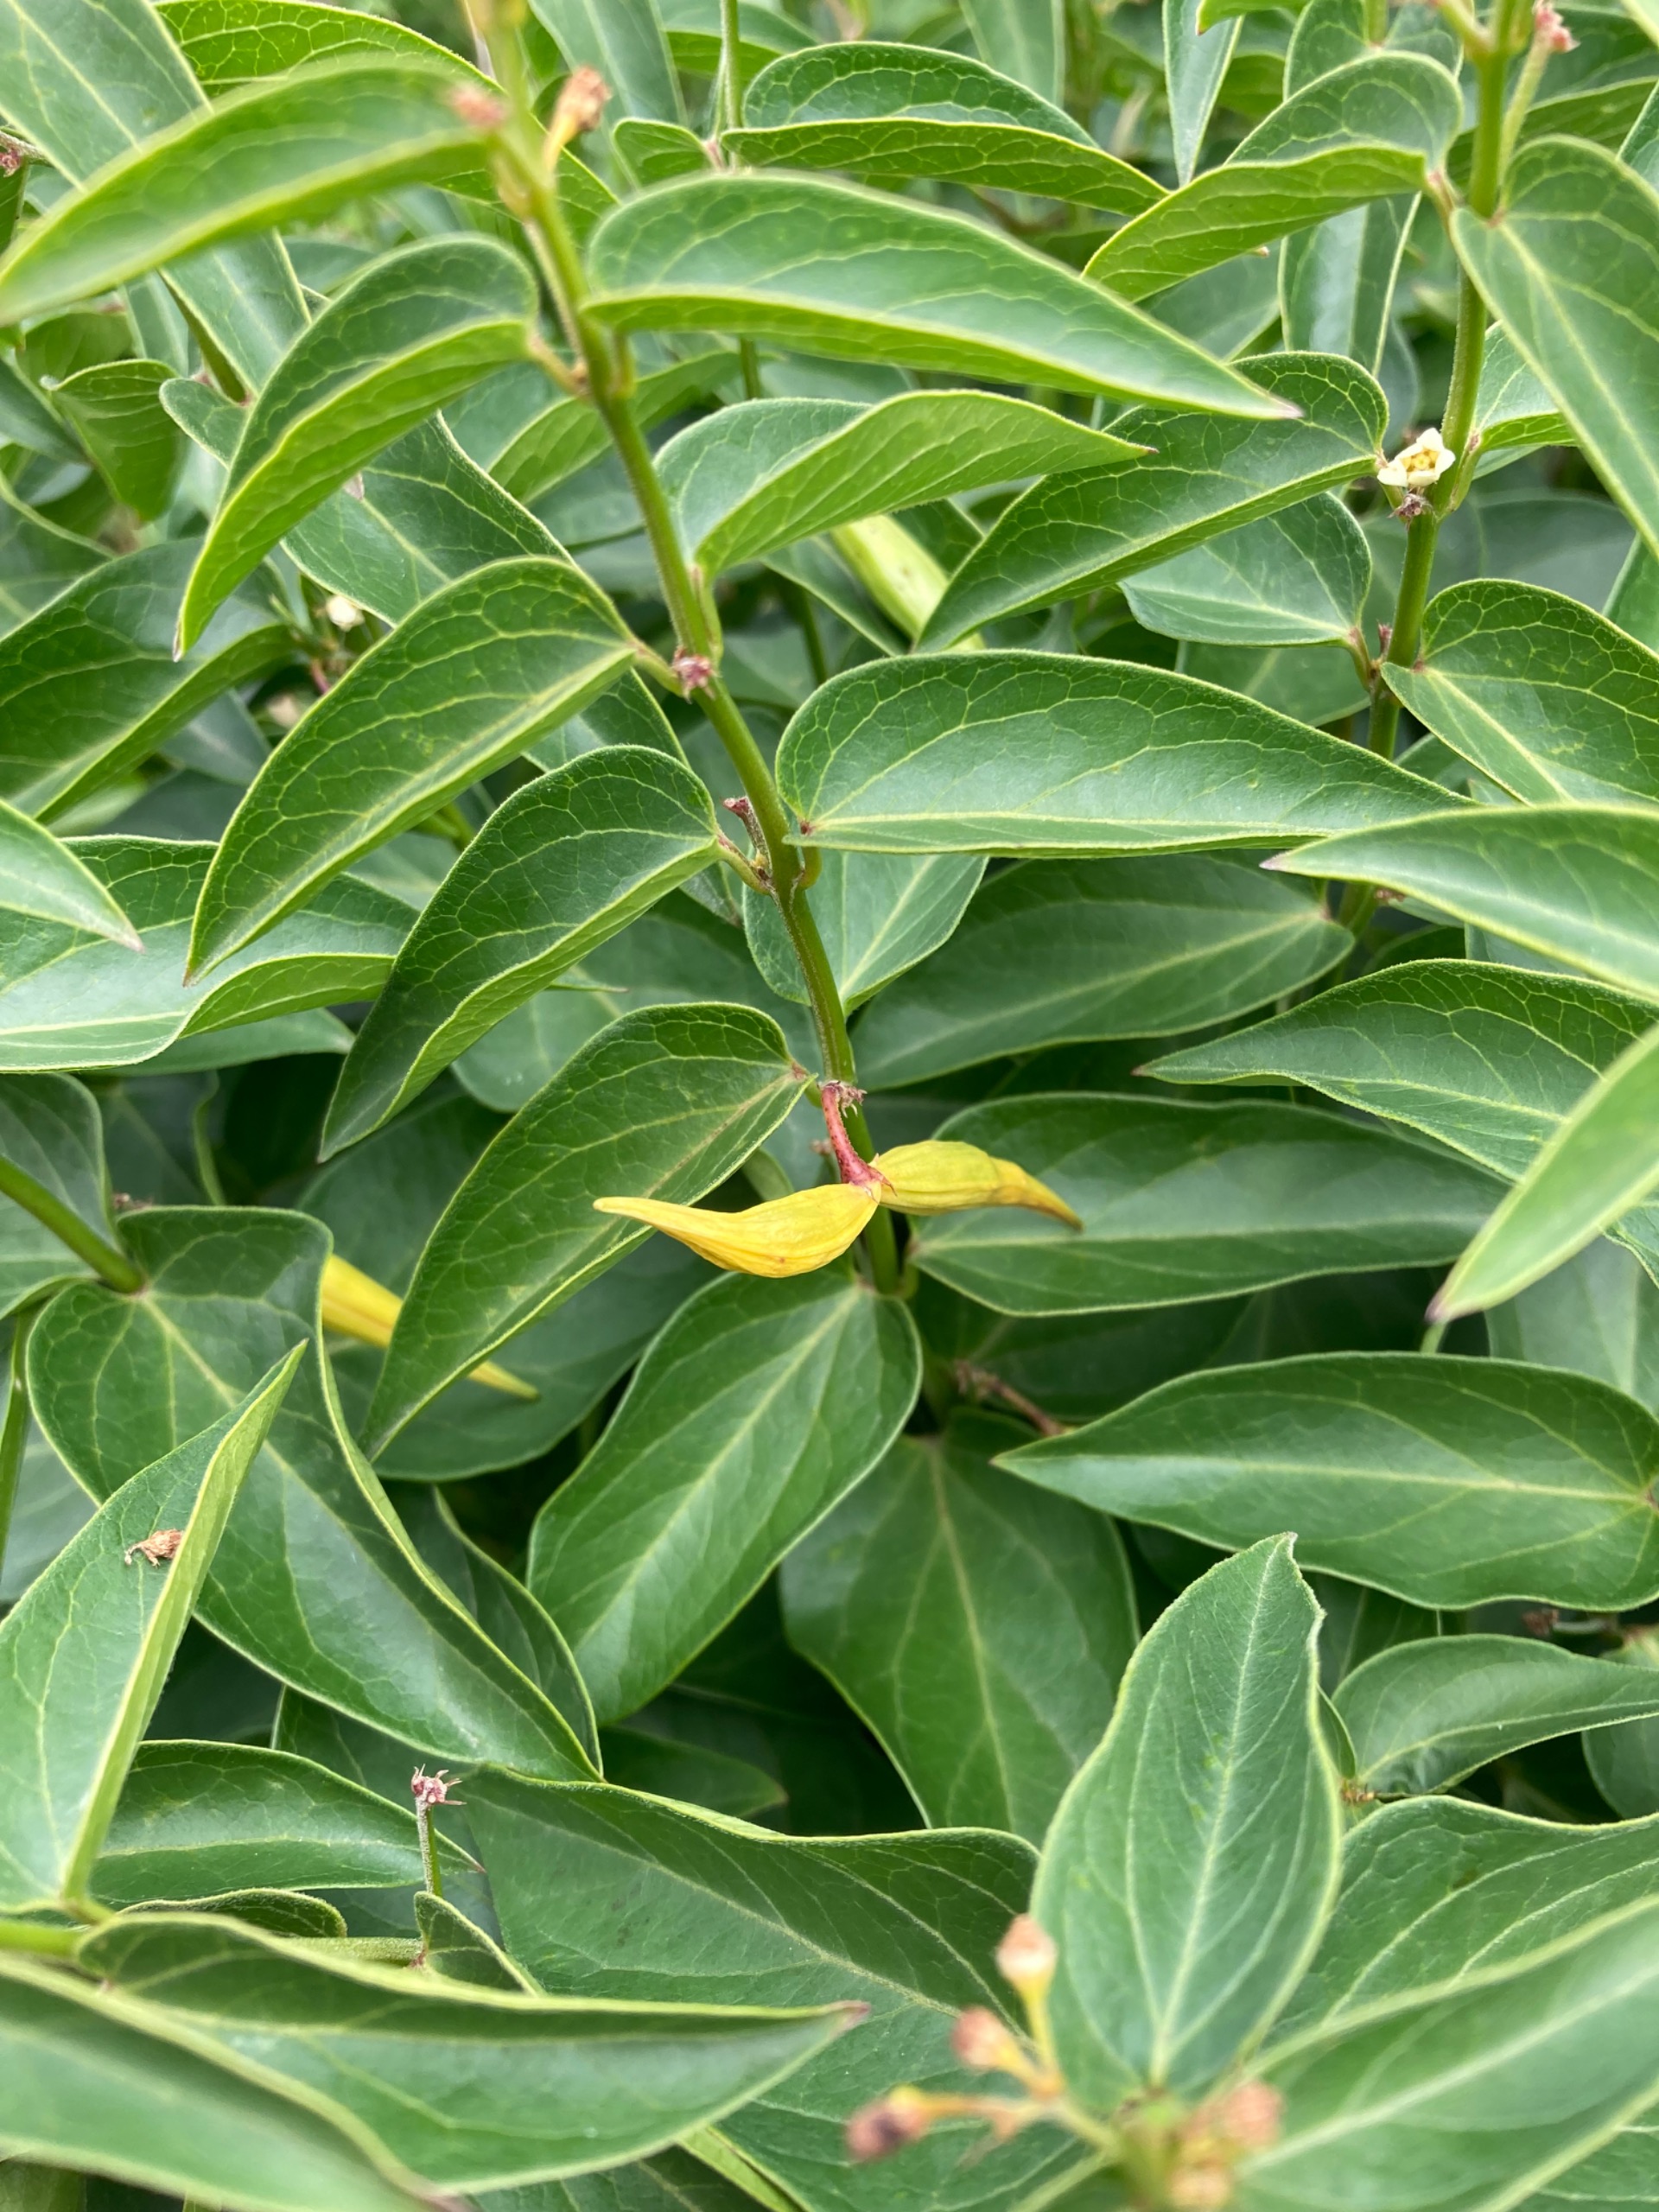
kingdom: Plantae
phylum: Tracheophyta
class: Magnoliopsida
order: Gentianales
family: Apocynaceae
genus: Vincetoxicum
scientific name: Vincetoxicum hirundinaria
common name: Svalerod
